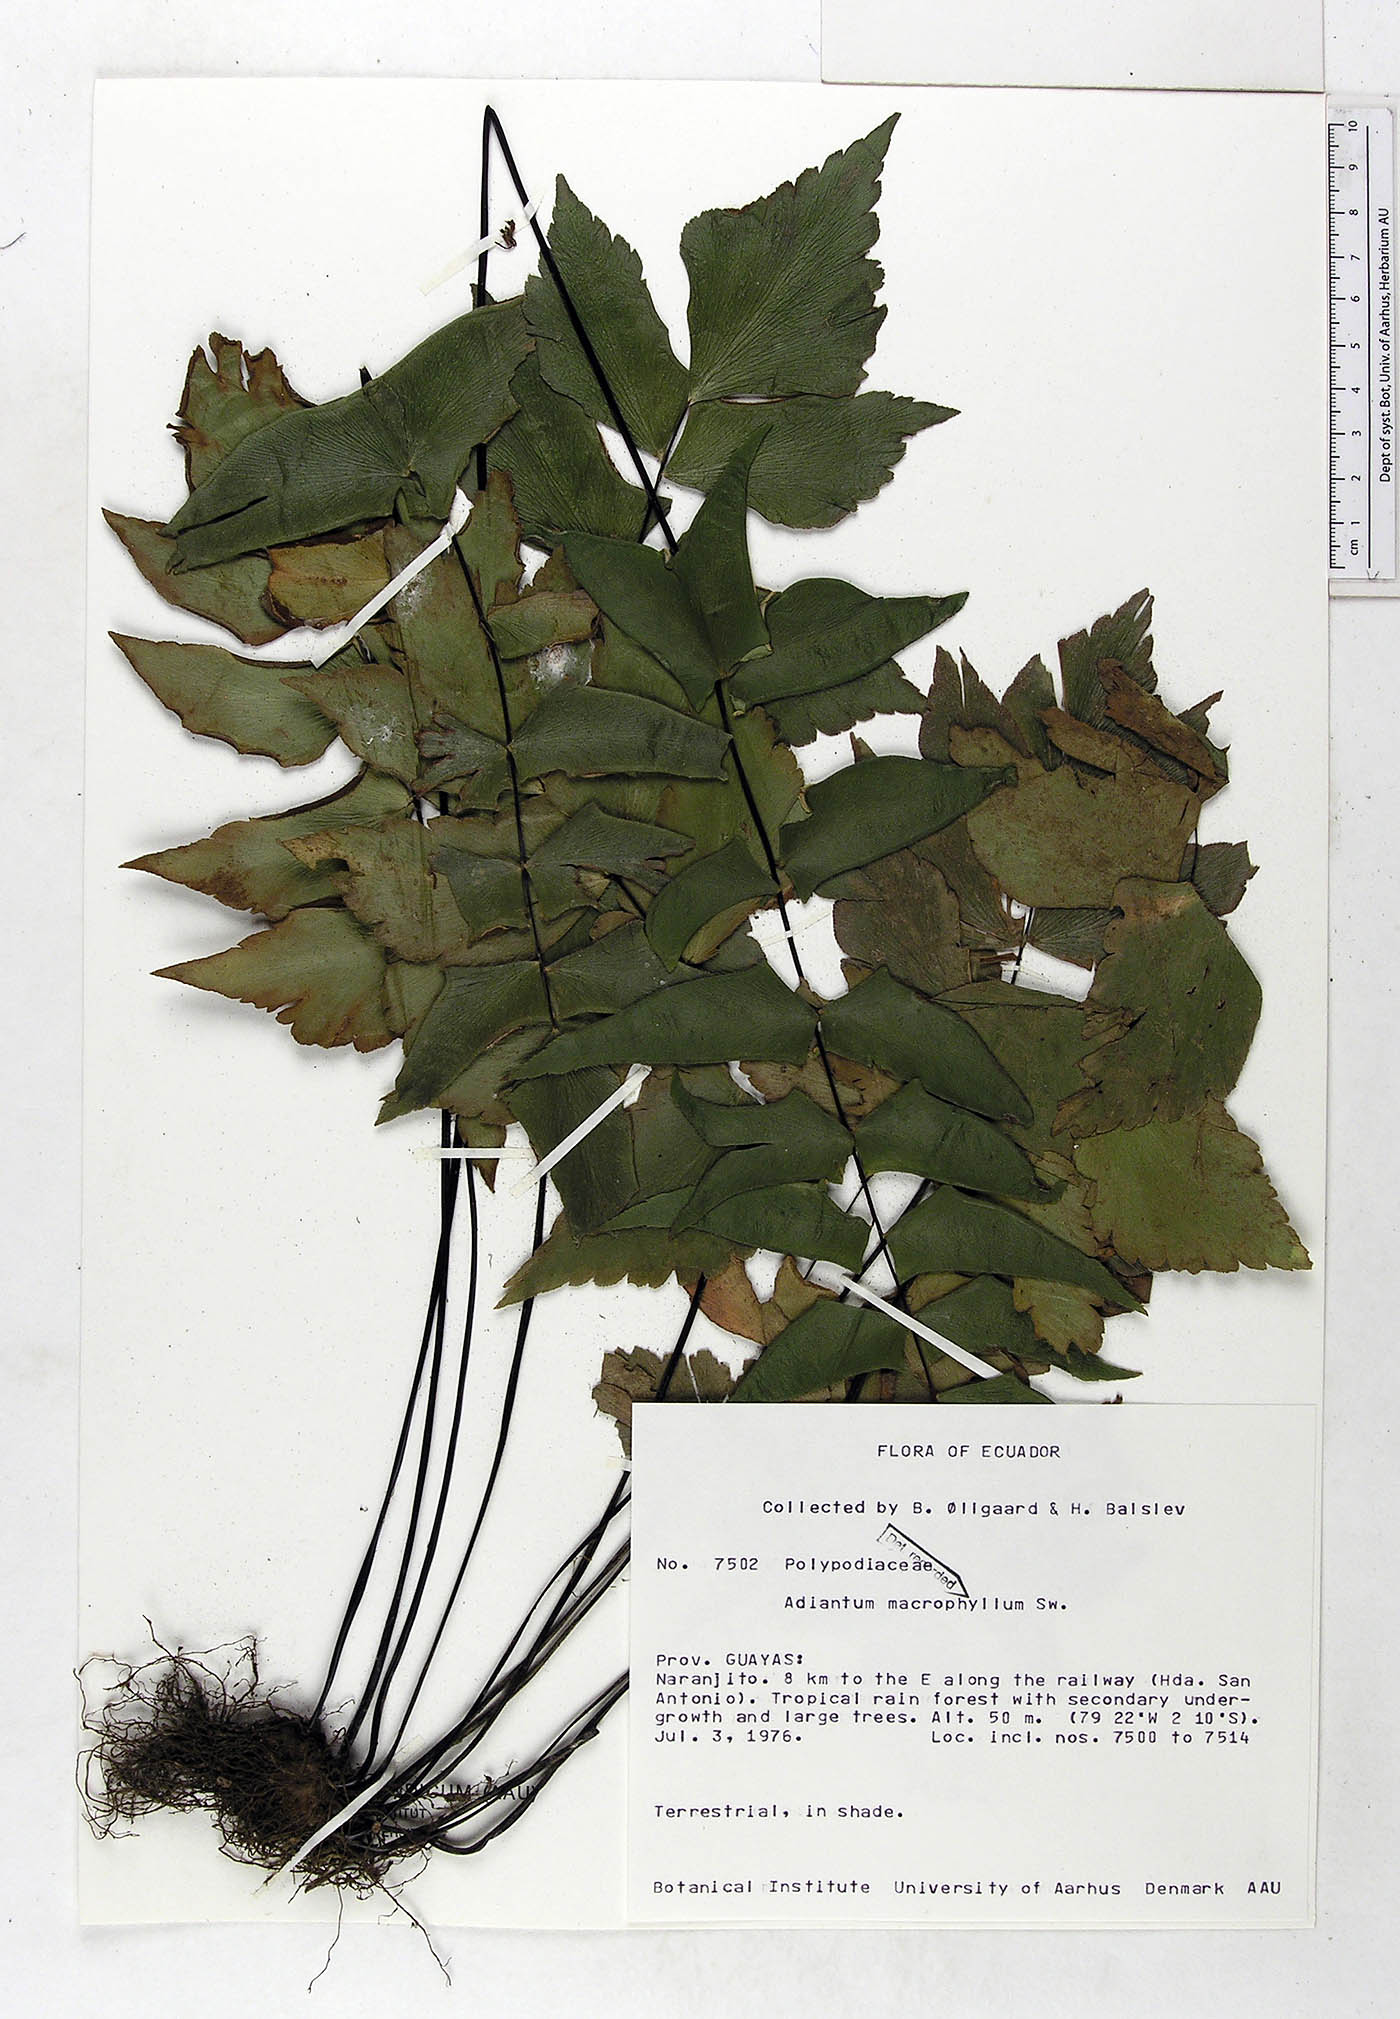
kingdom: Plantae
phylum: Tracheophyta
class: Polypodiopsida
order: Polypodiales
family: Pteridaceae
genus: Adiantum
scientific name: Adiantum macrophyllum
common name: Largeleaf maidenhair
